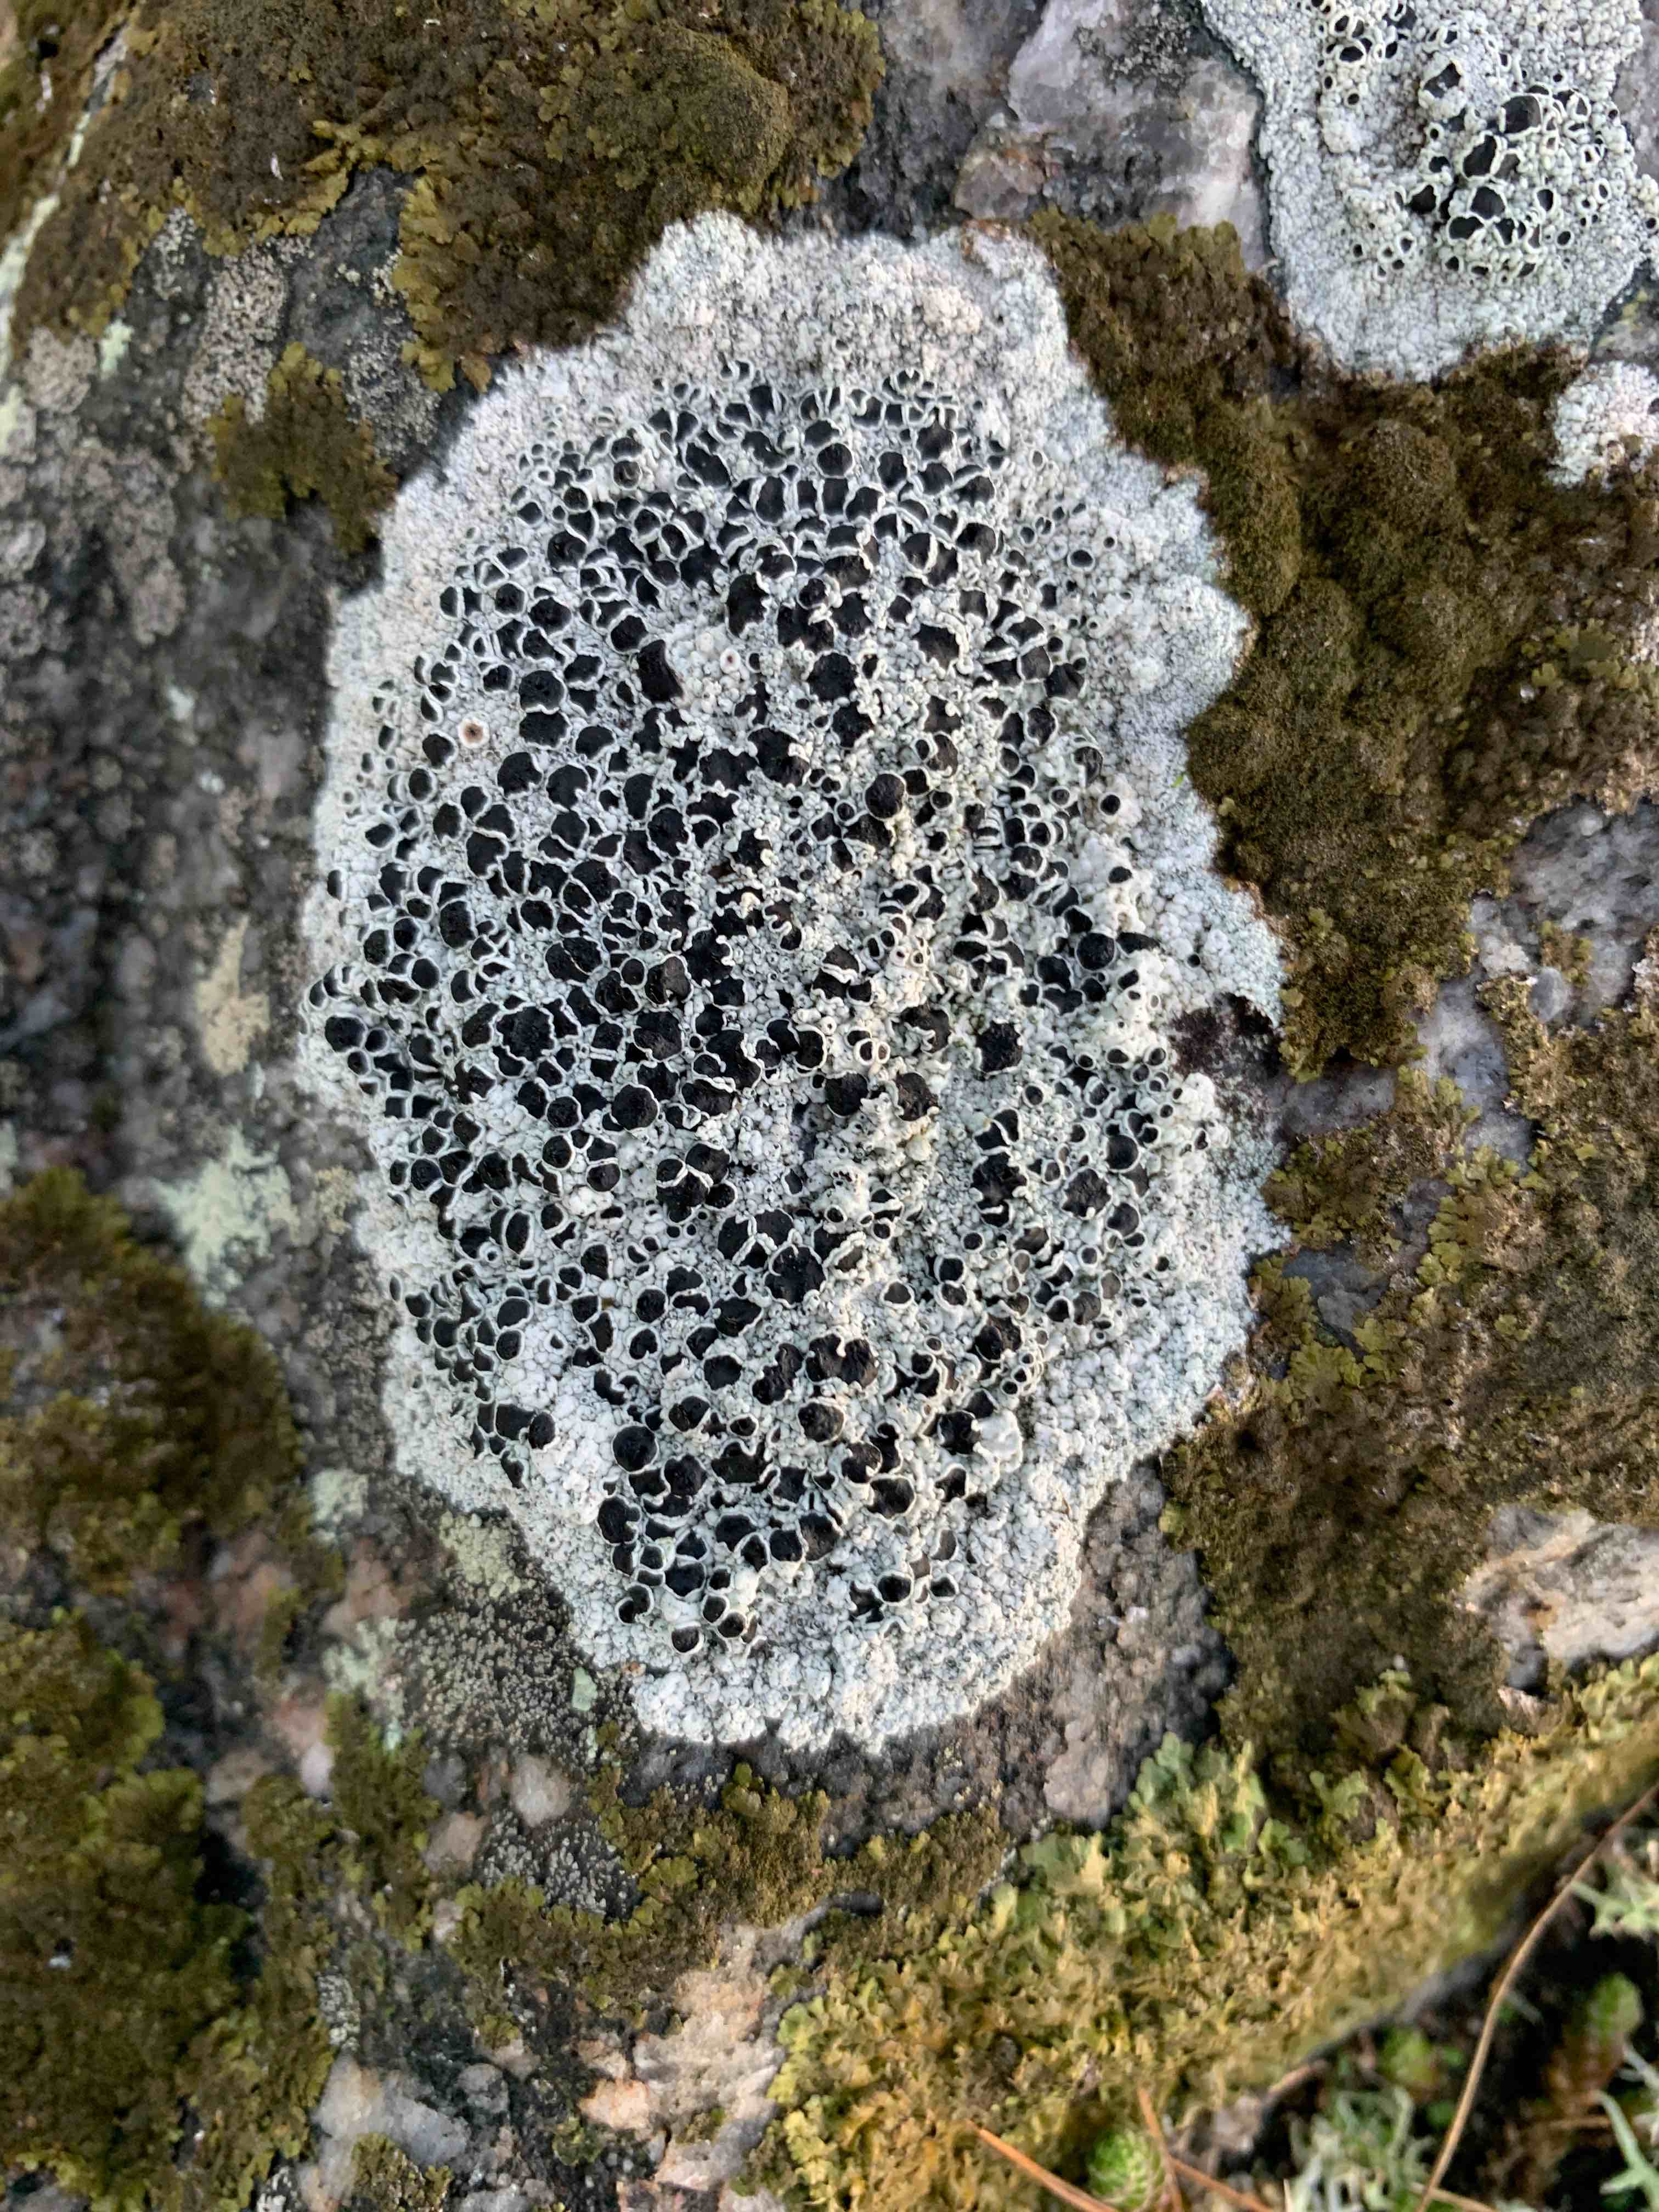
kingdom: Fungi
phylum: Ascomycota
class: Lecanoromycetes
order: Lecanorales
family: Tephromelataceae
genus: Tephromela
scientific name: Tephromela atra
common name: sortfrugtet kantskivelav
